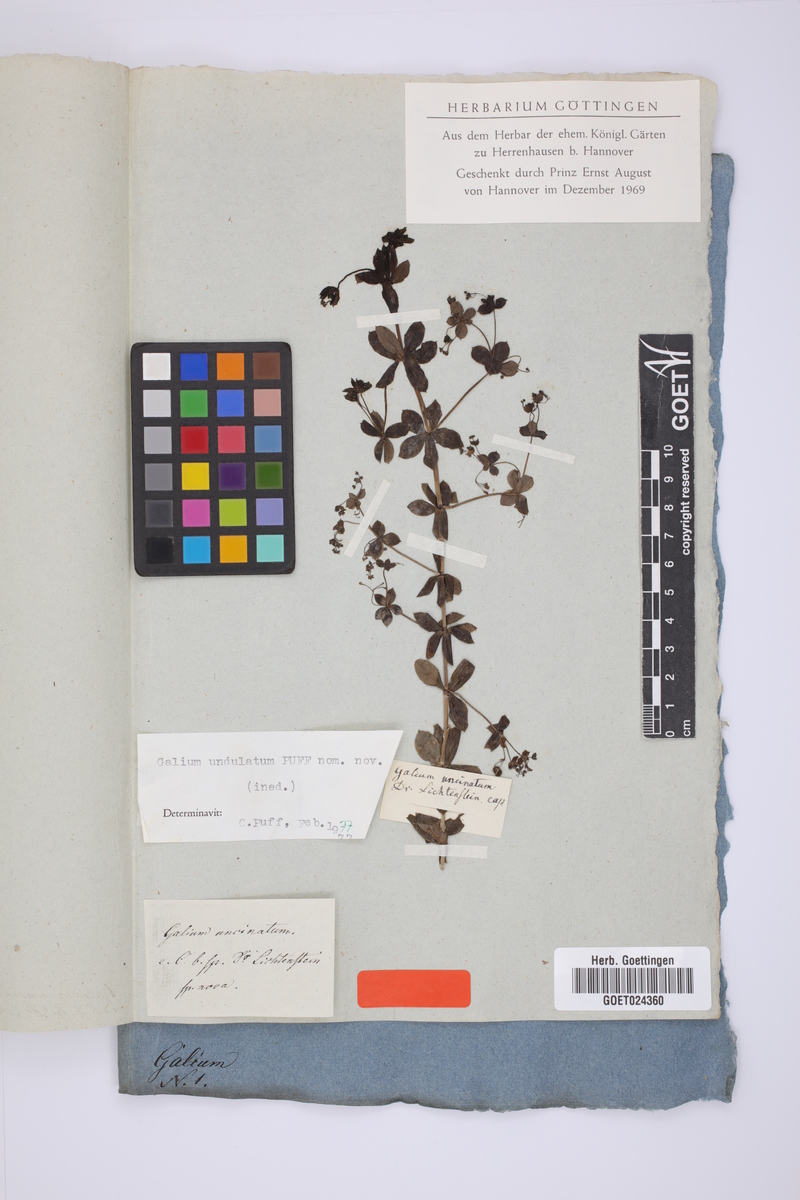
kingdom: Plantae
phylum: Tracheophyta
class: Magnoliopsida
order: Gentianales
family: Rubiaceae
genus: Galium
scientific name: Galium undulatum
